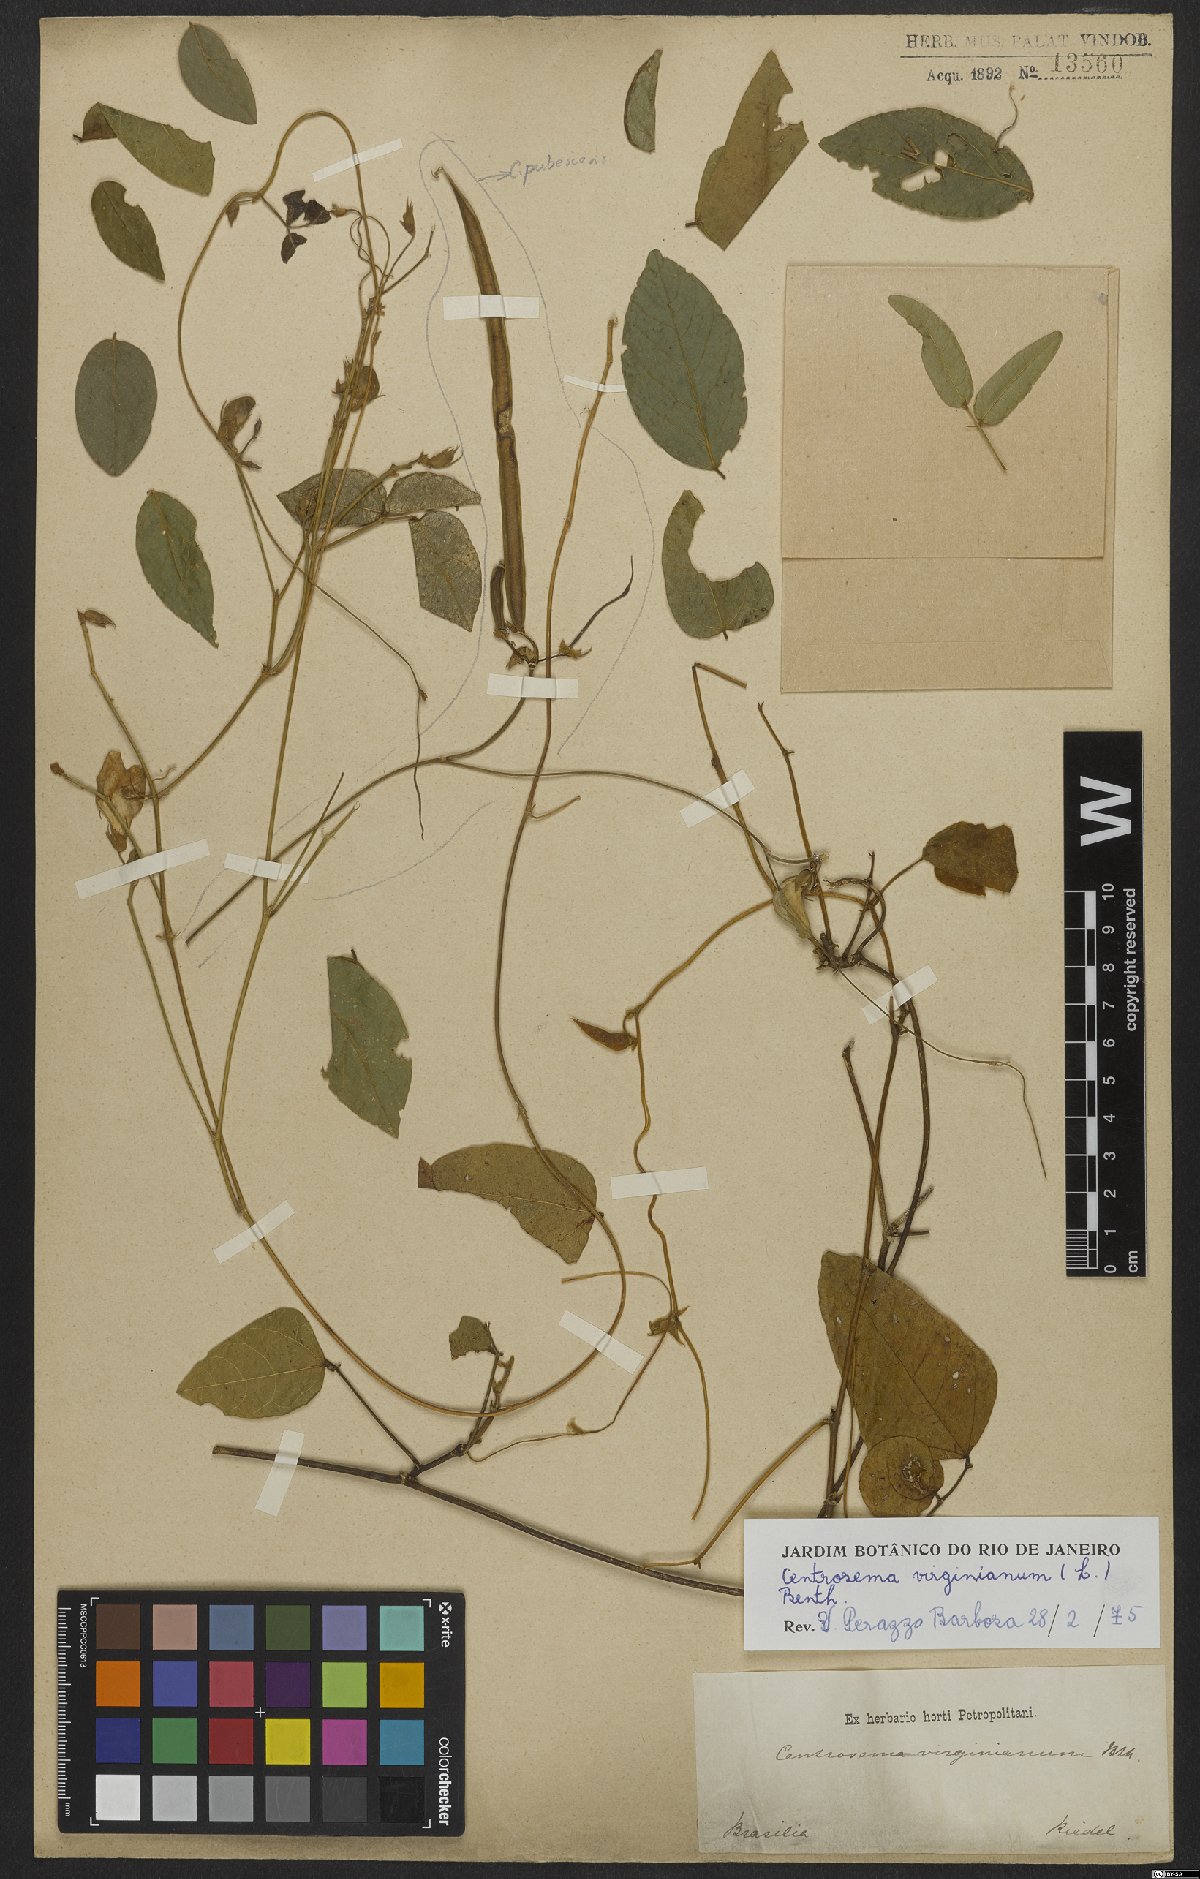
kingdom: Plantae
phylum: Tracheophyta
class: Magnoliopsida
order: Fabales
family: Fabaceae
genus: Centrosema
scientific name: Centrosema virginianum
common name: Butterfly-pea
